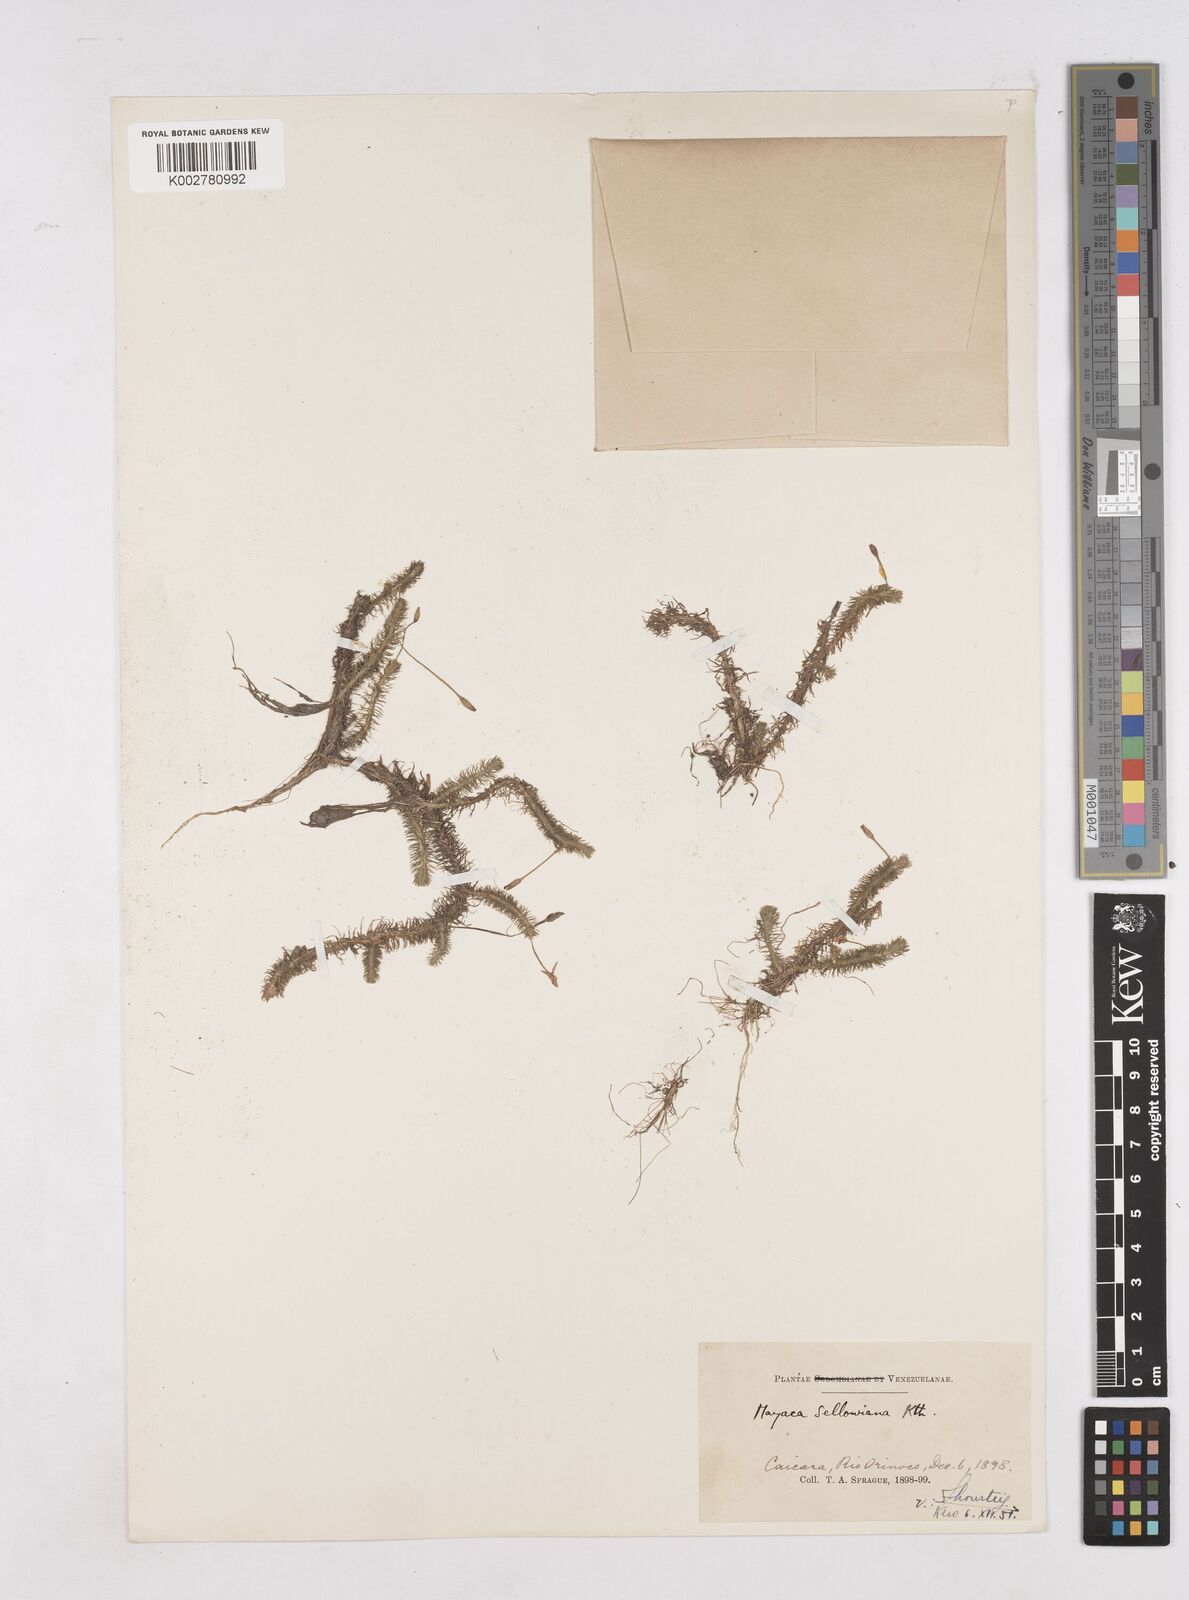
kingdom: Plantae
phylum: Tracheophyta
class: Liliopsida
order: Poales
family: Mayacaceae
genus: Mayaca
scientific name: Mayaca sellowiana
